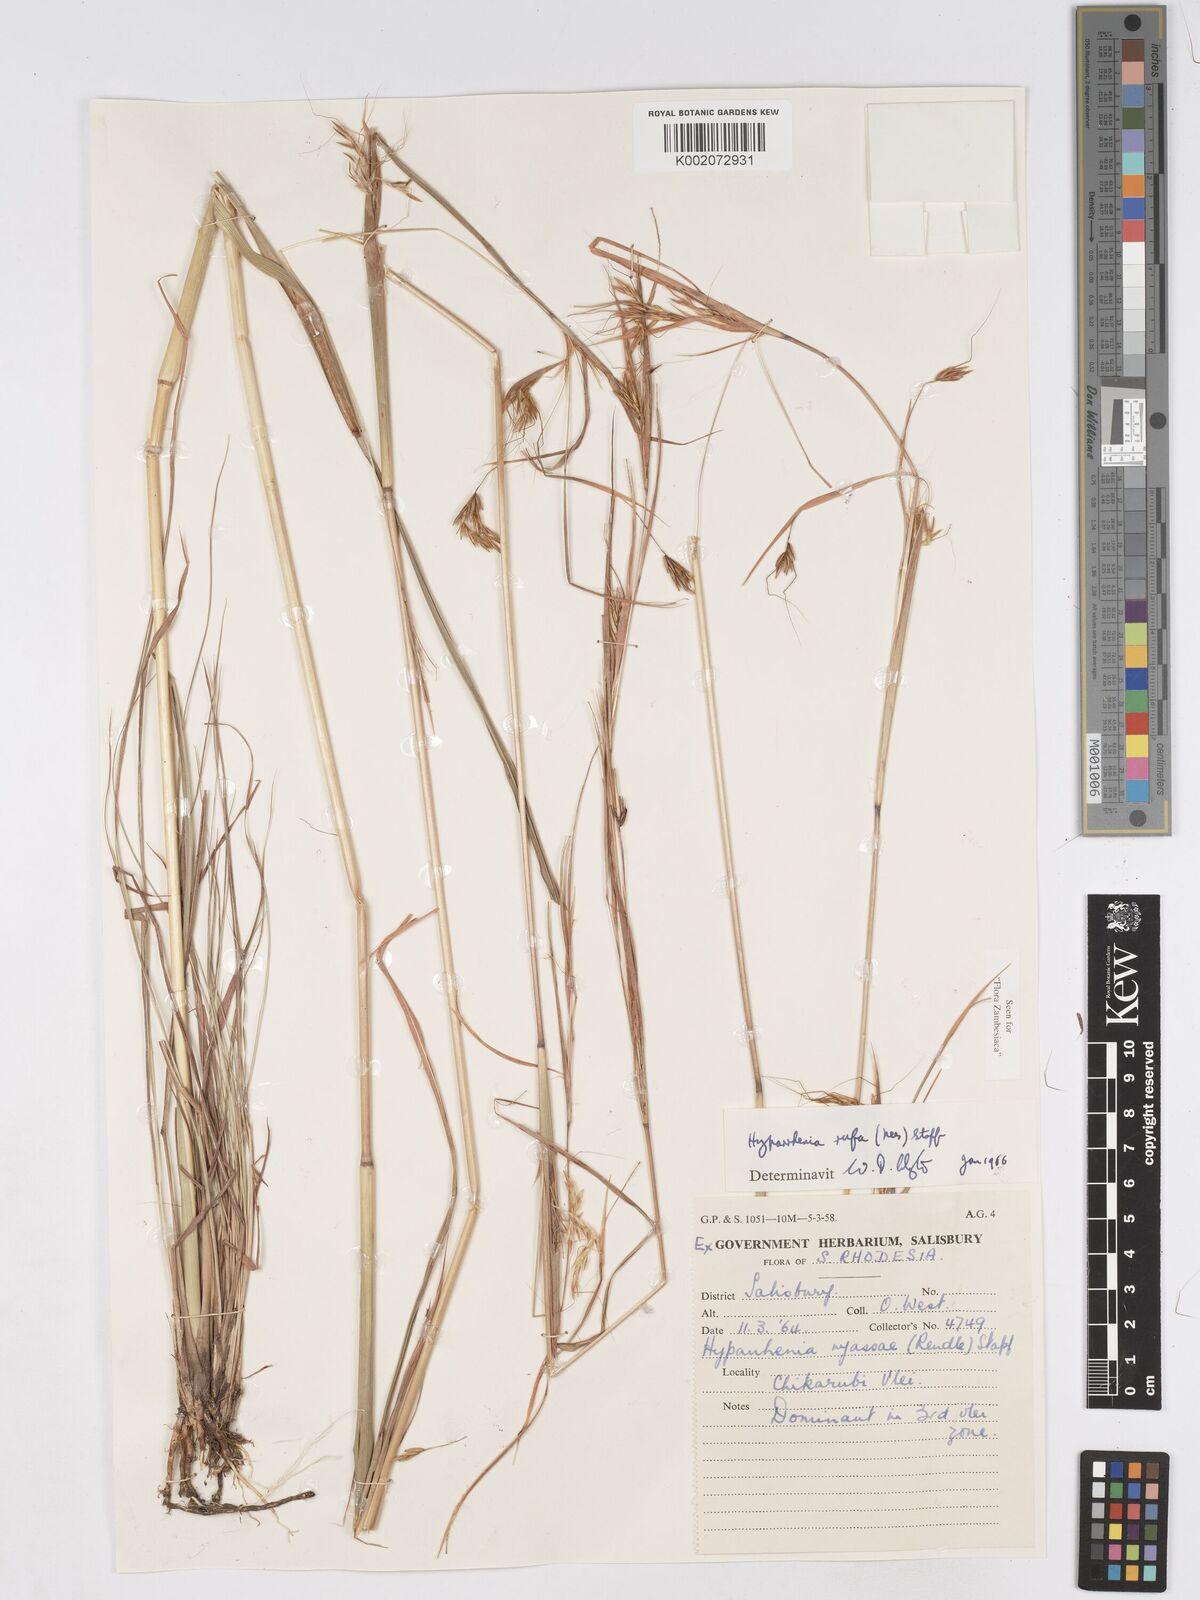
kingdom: Plantae
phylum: Tracheophyta
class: Liliopsida
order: Poales
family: Poaceae
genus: Hyparrhenia
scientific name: Hyparrhenia rufa
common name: Jaraguagrass
